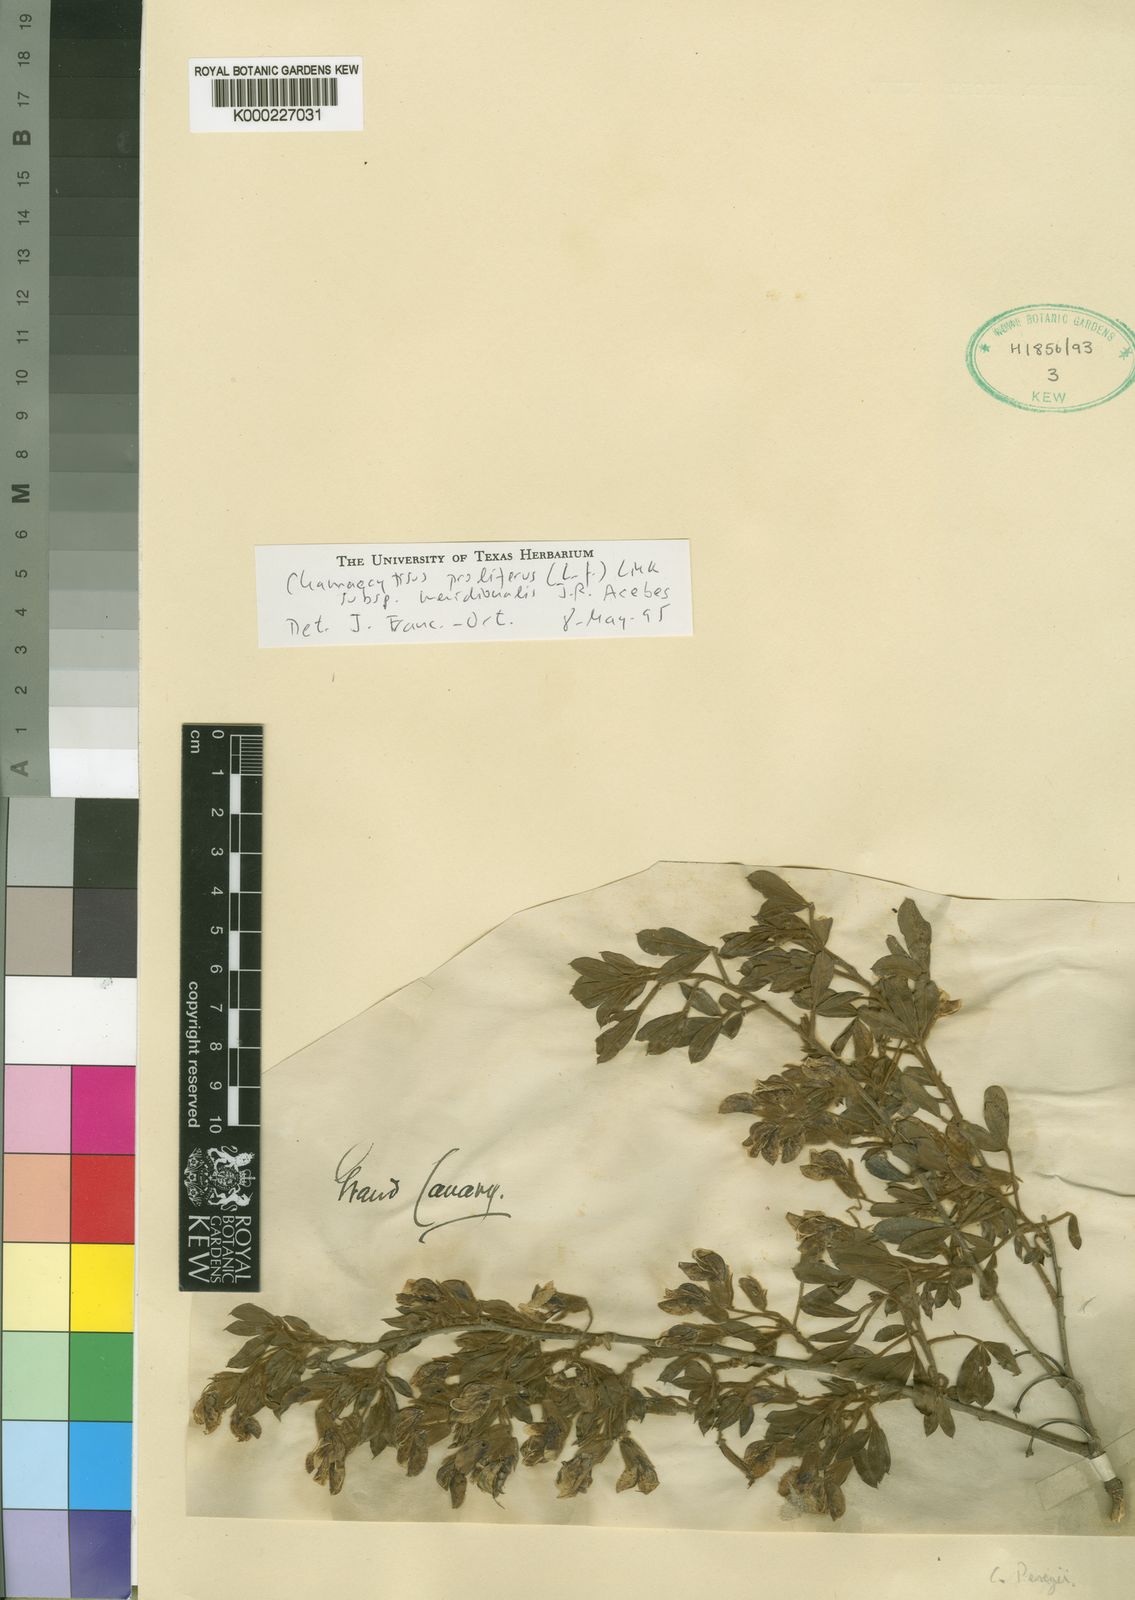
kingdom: Plantae
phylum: Tracheophyta
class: Magnoliopsida
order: Fabales
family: Fabaceae
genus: Chamaecytisus
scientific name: Chamaecytisus prolifer
